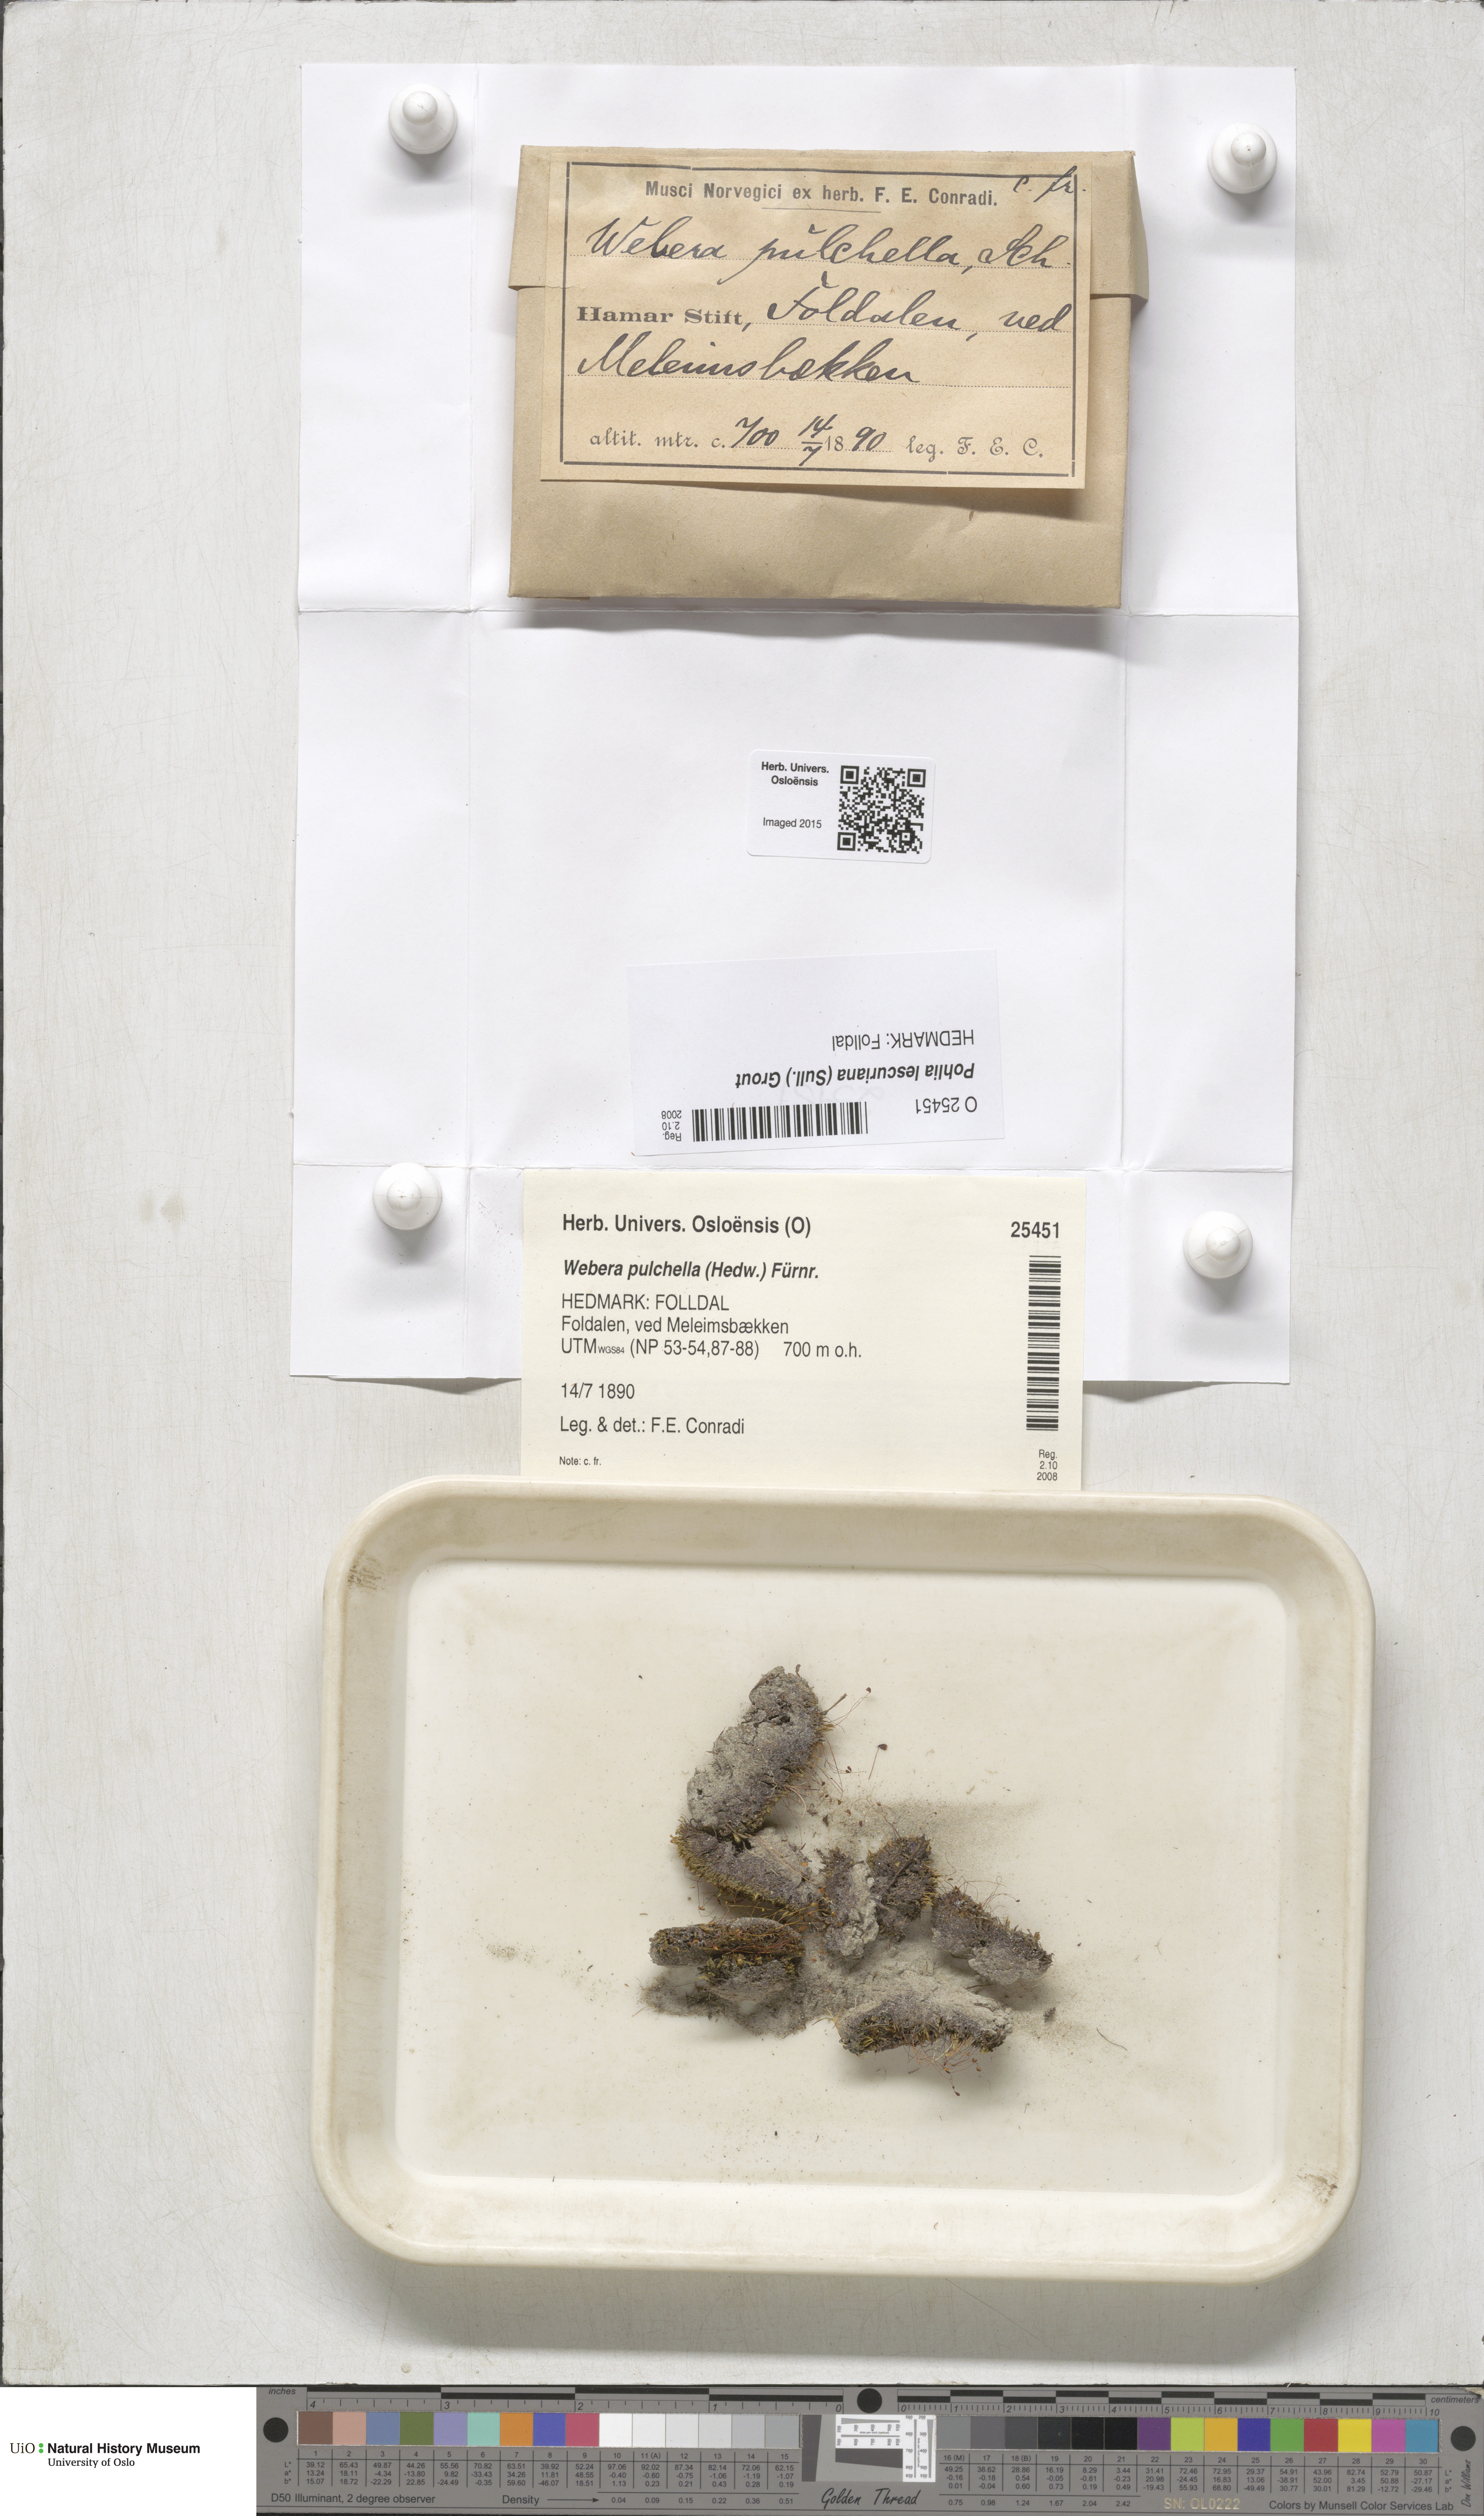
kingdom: Plantae
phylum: Bryophyta
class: Bryopsida
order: Bryales
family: Mniaceae
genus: Pohlia
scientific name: Pohlia lescuriana
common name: Pear-shaped nodding moss
